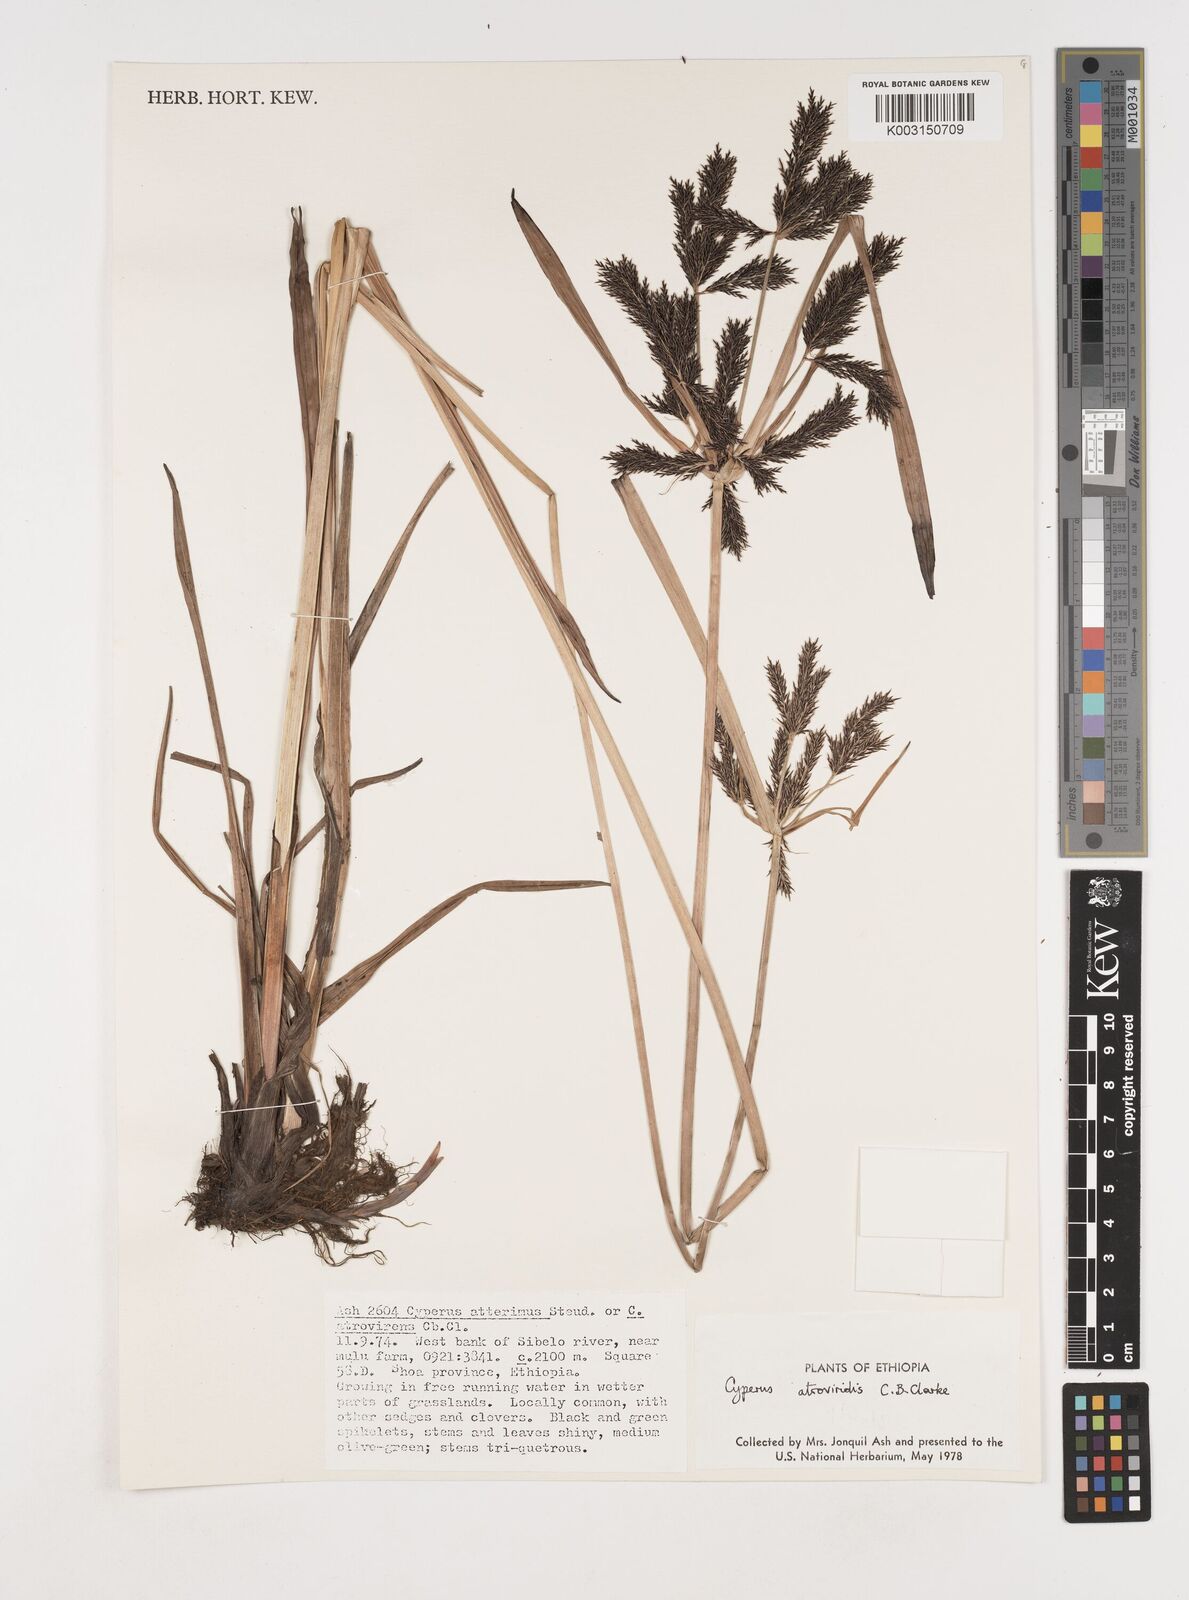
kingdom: Plantae
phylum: Tracheophyta
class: Liliopsida
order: Poales
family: Cyperaceae
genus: Cyperus
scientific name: Cyperus aterrimus
